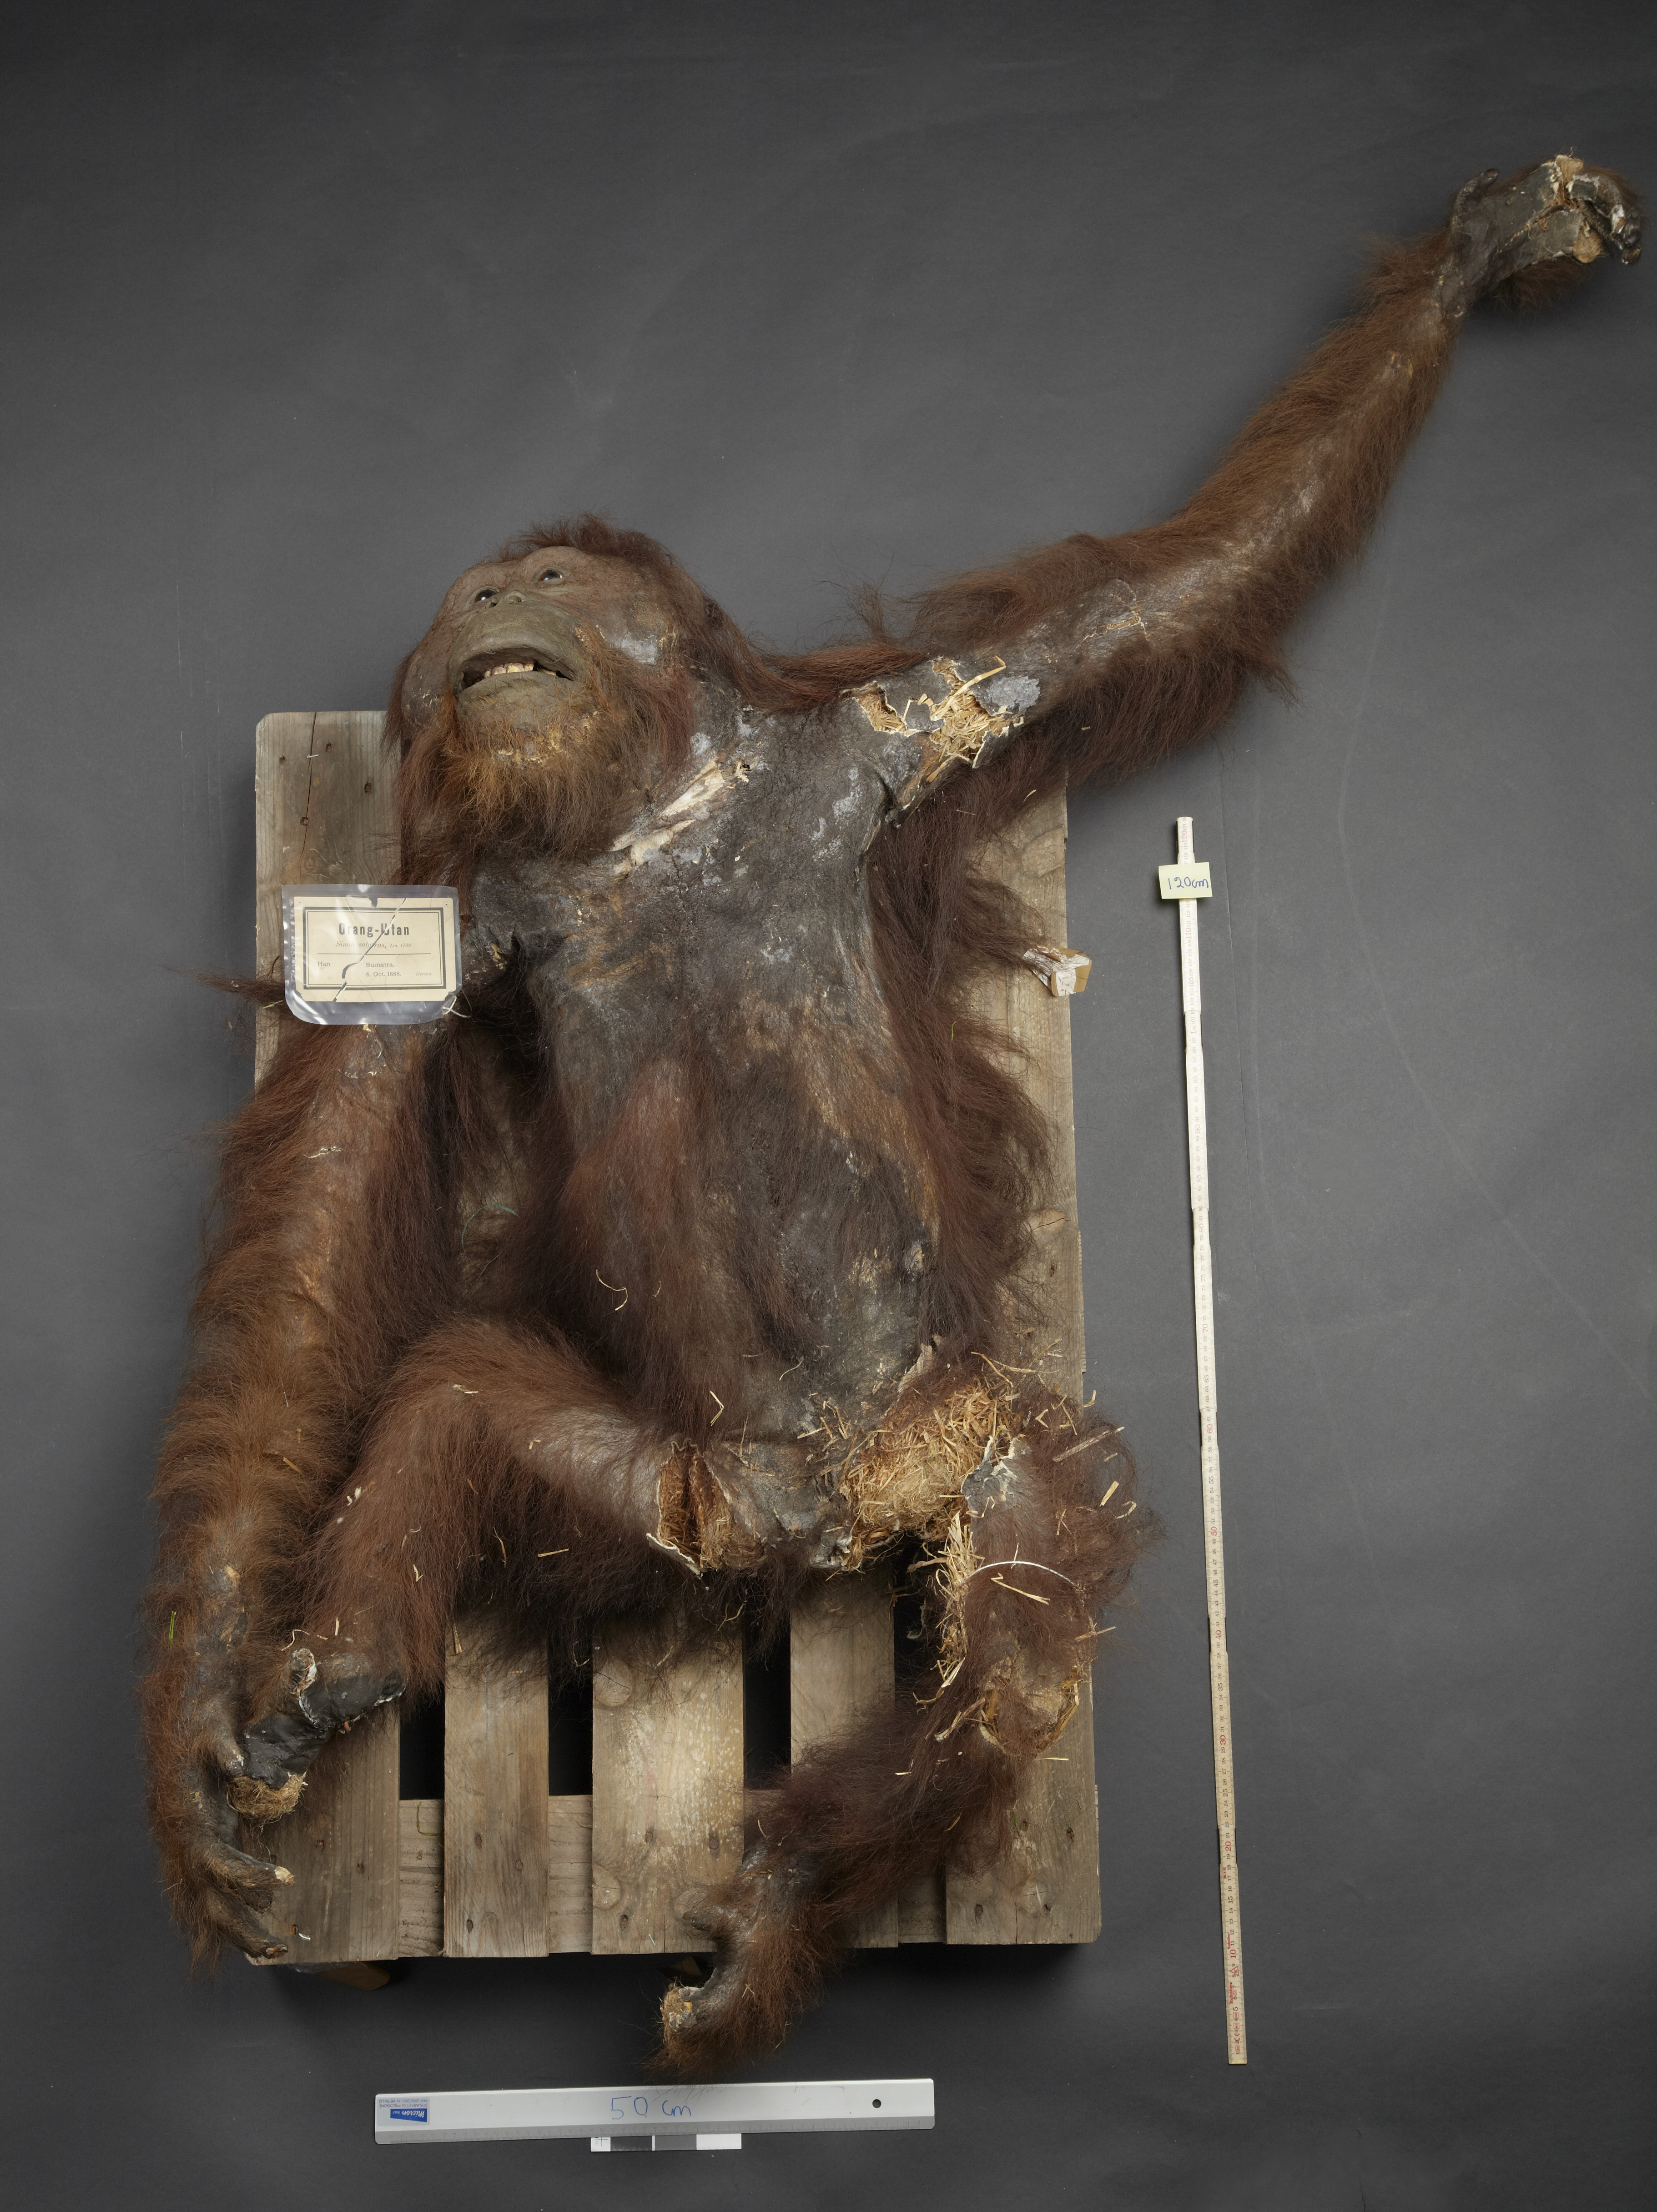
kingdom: Animalia
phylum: Chordata
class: Mammalia
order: Primates
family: Hominidae
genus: Pongo
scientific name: Pongo pygmaeus
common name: Bornean orangutan
